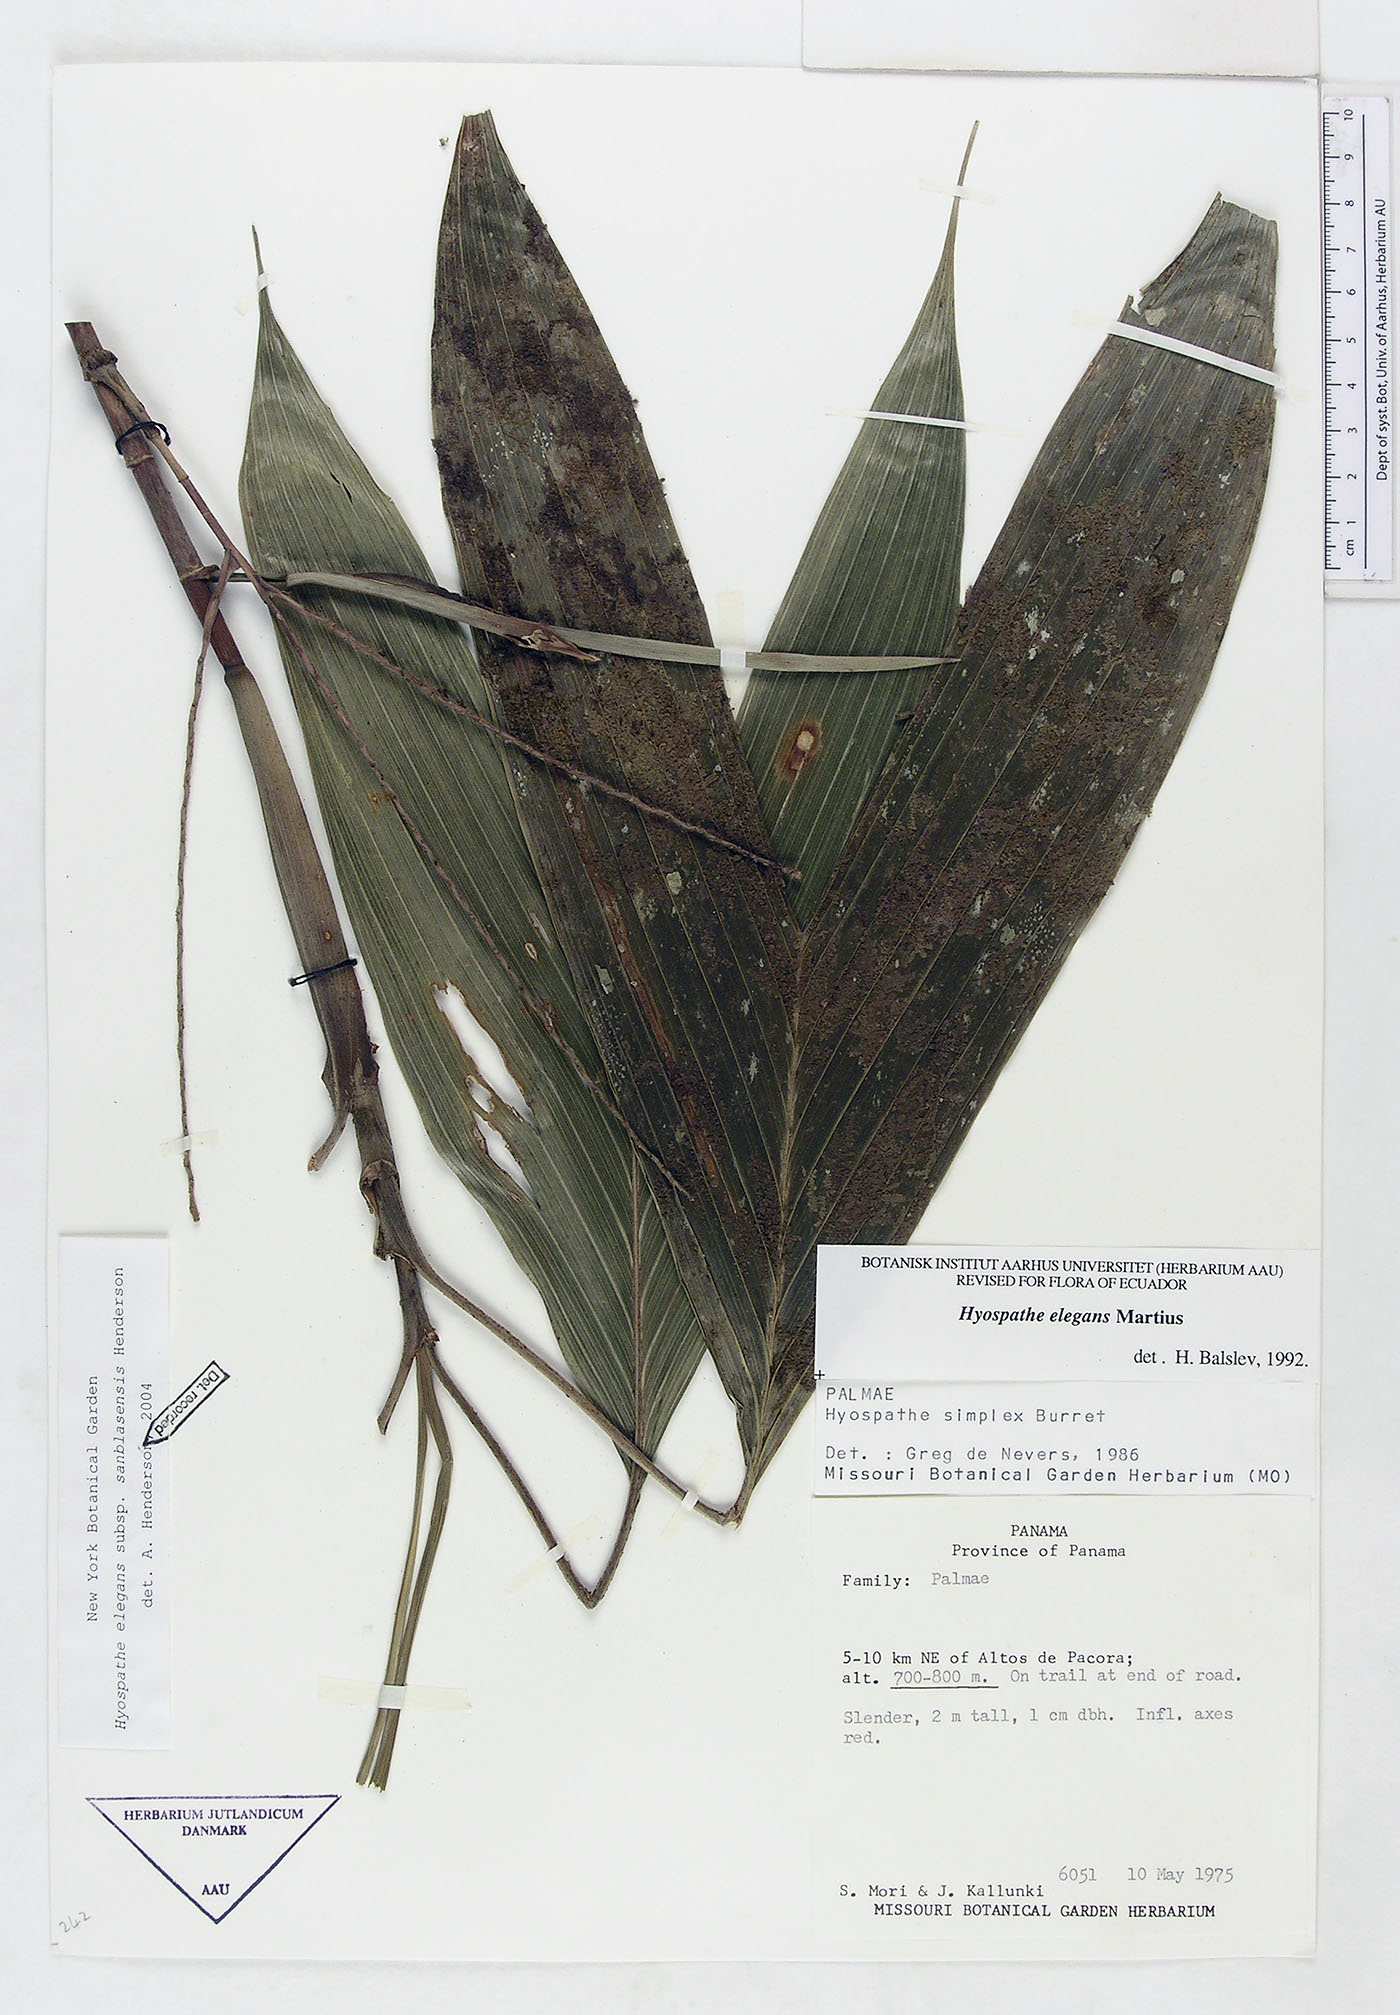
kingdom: Plantae
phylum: Tracheophyta
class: Liliopsida
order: Arecales
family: Arecaceae
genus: Hyospathe
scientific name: Hyospathe elegans
